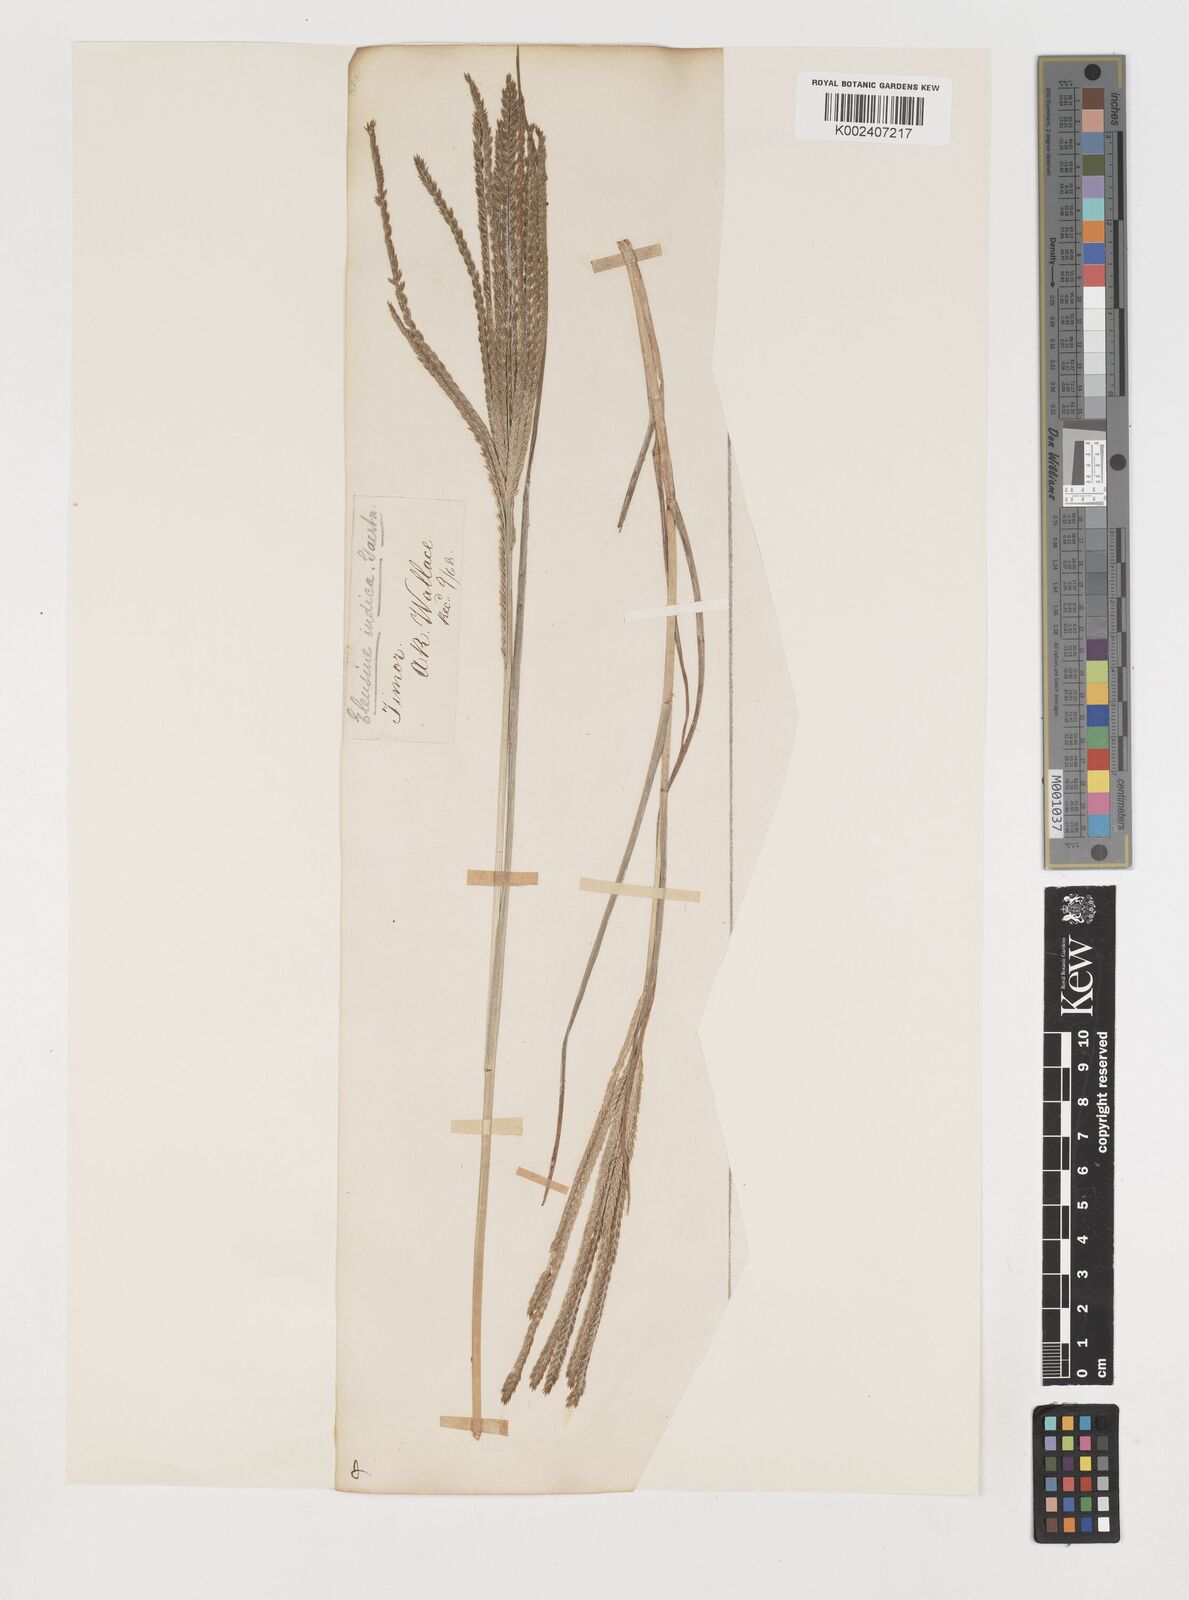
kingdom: Plantae
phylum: Tracheophyta
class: Liliopsida
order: Poales
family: Poaceae
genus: Eleusine
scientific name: Eleusine indica
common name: Yard-grass
